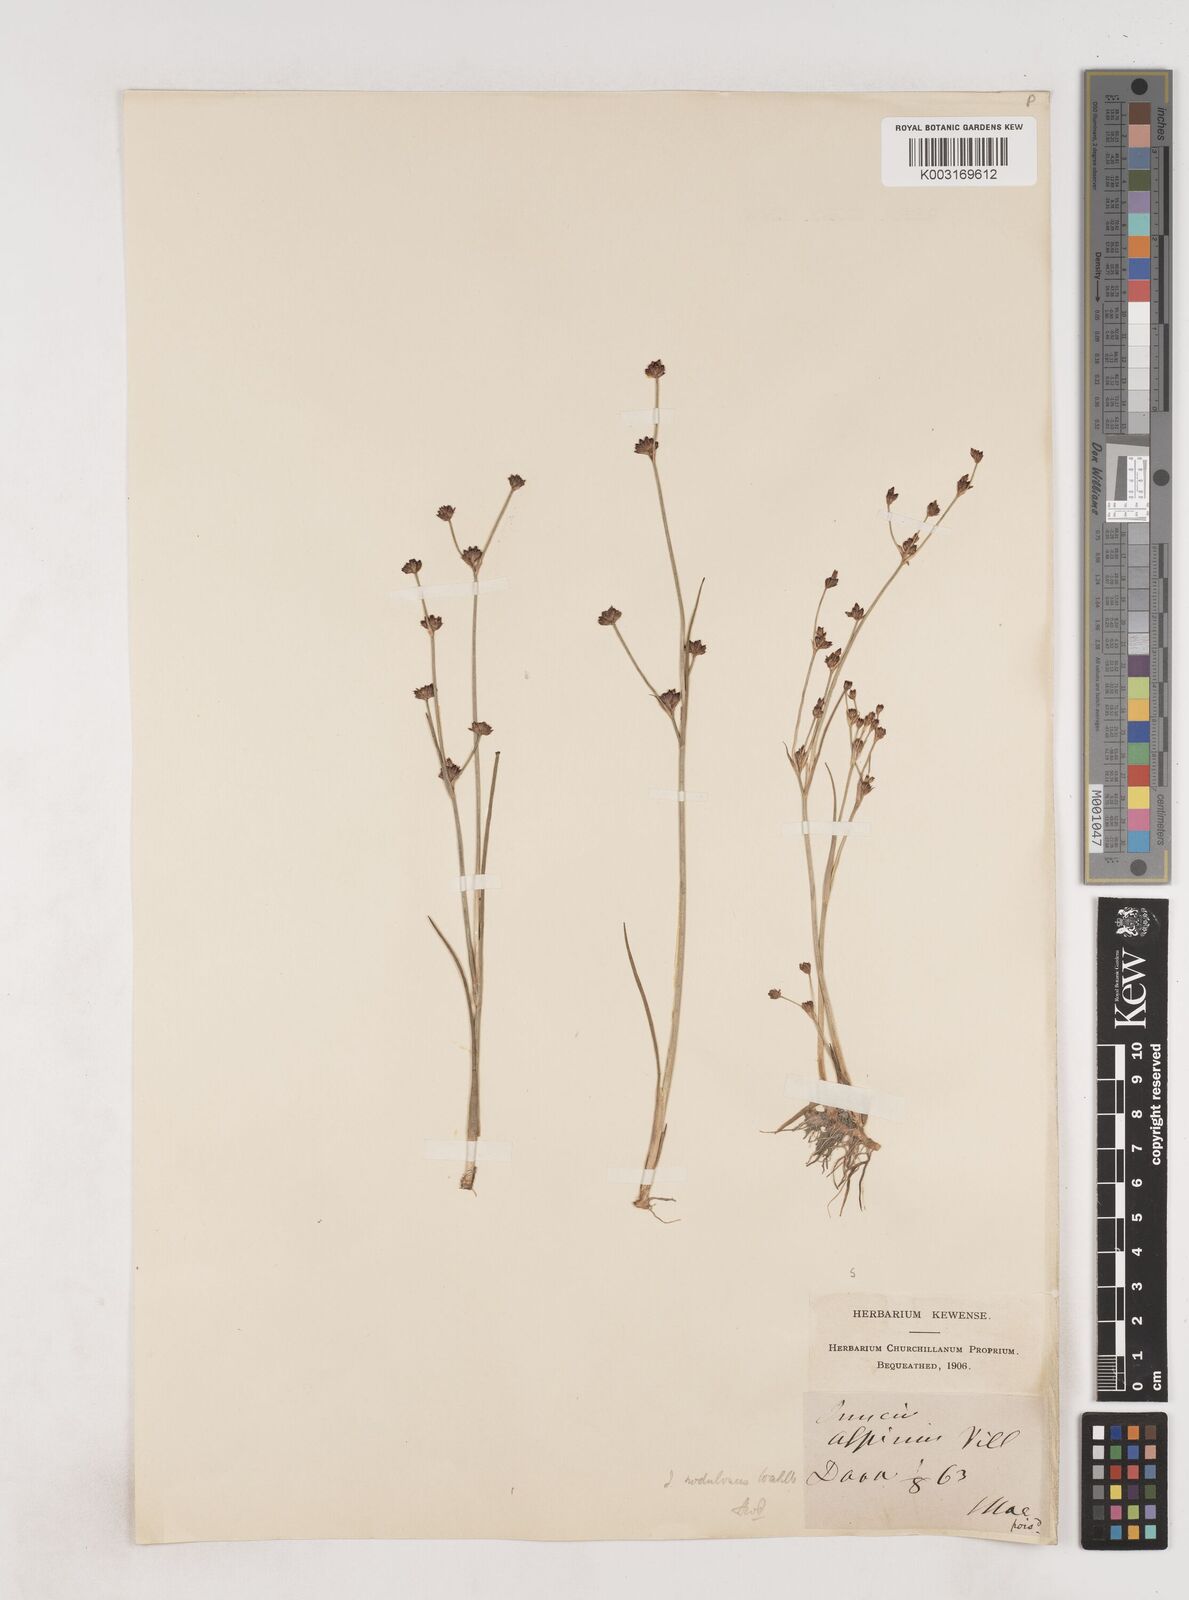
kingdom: Plantae
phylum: Tracheophyta
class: Liliopsida
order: Poales
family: Juncaceae
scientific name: Juncaceae
